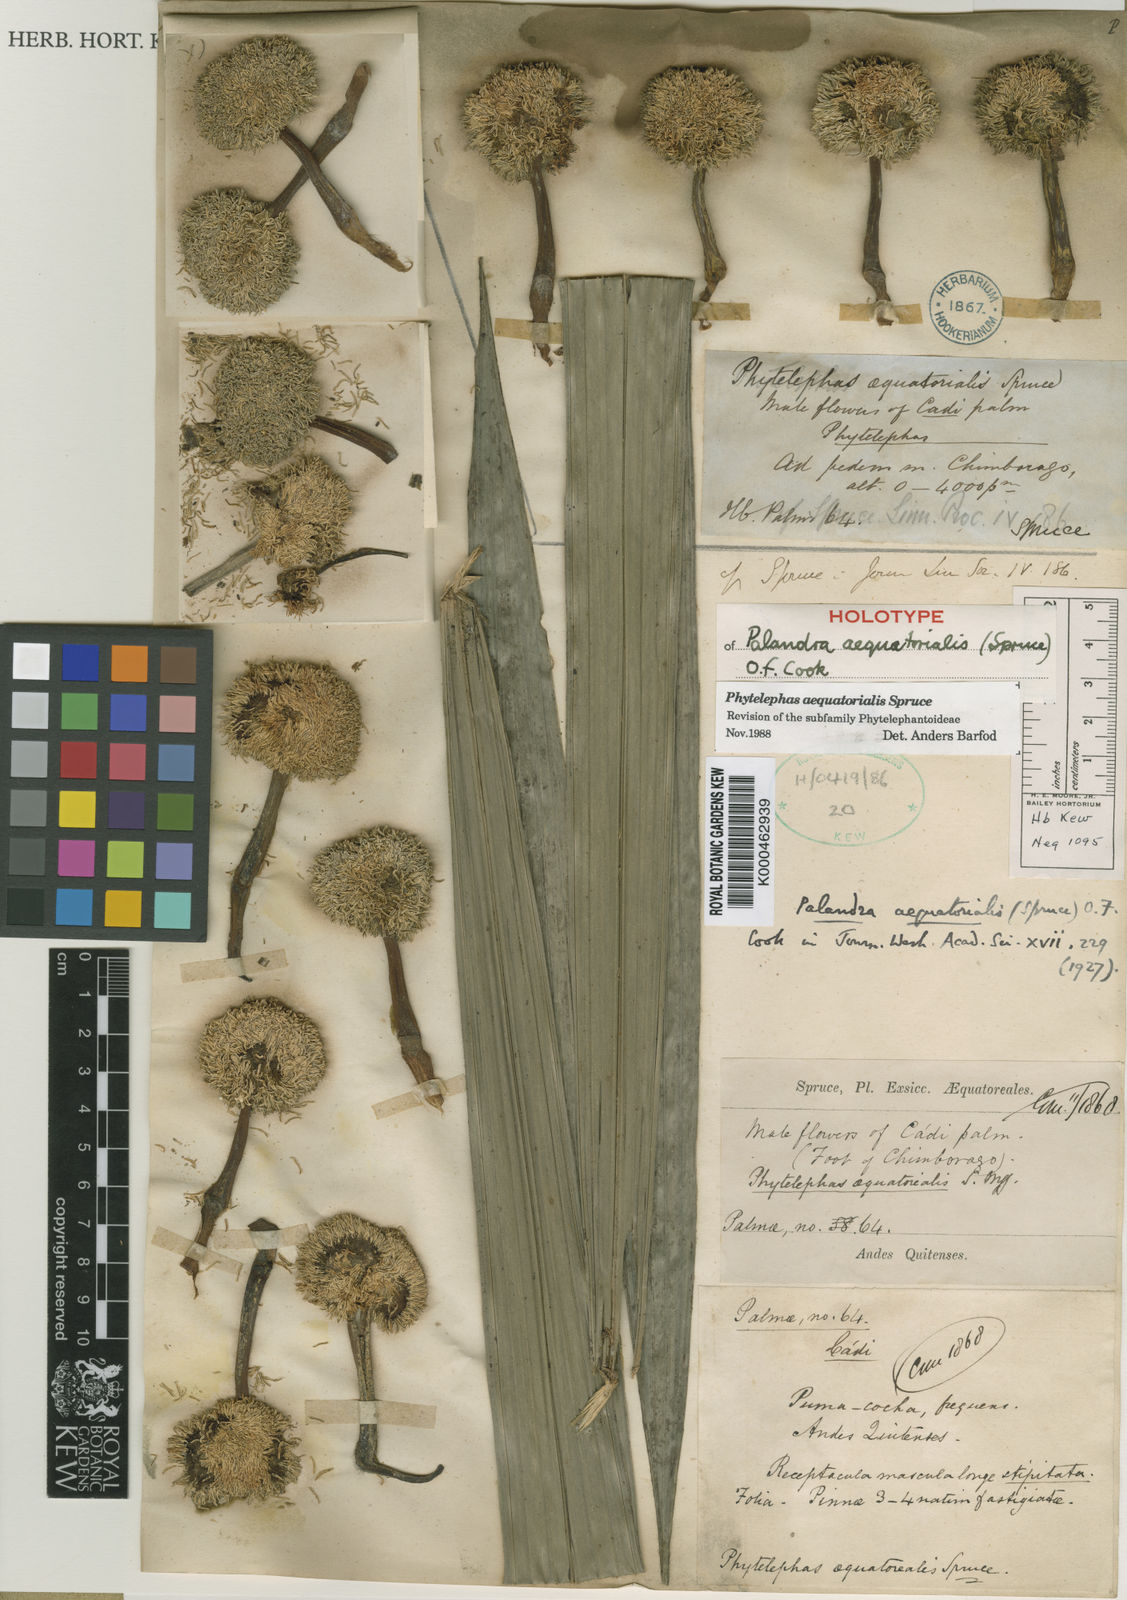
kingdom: Plantae
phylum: Tracheophyta
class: Liliopsida
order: Arecales
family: Arecaceae
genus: Phytelephas
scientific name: Phytelephas aequatorialis
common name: Ivory palm
